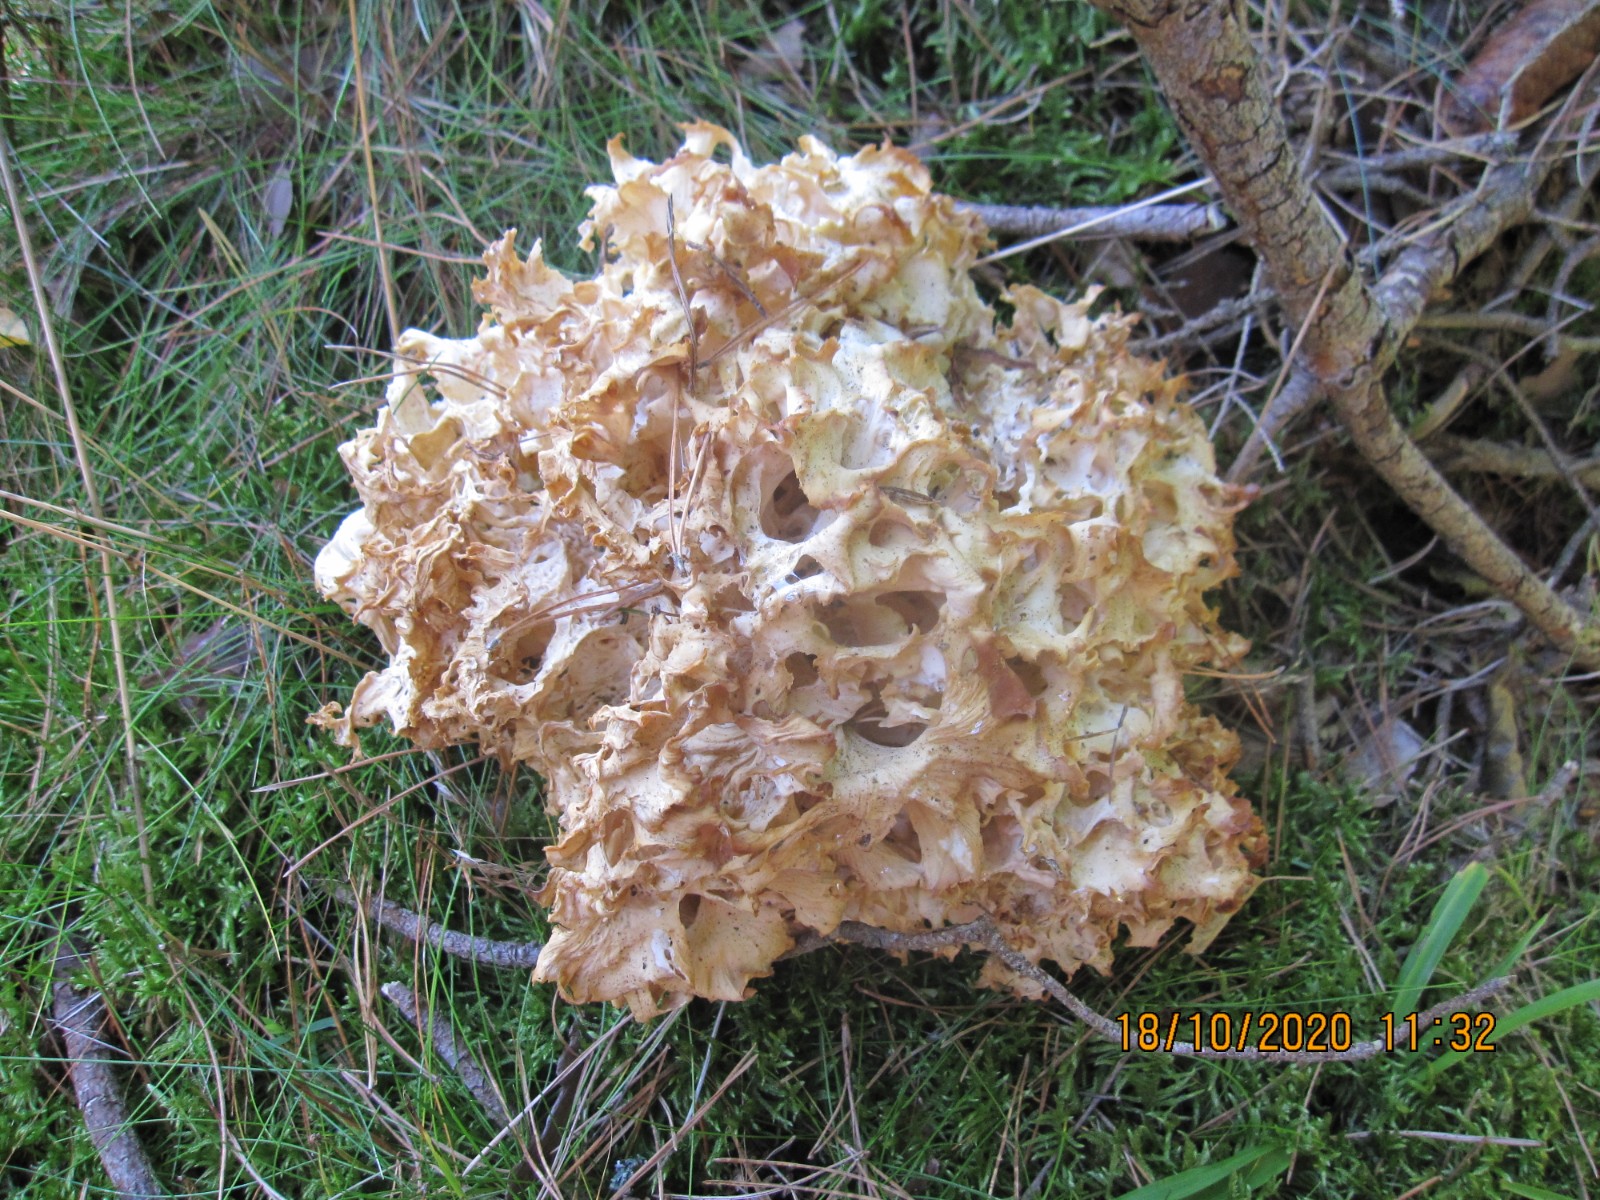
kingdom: Fungi
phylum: Basidiomycota
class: Agaricomycetes
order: Polyporales
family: Sparassidaceae
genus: Sparassis
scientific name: Sparassis crispa
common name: kruset blomkålssvamp
